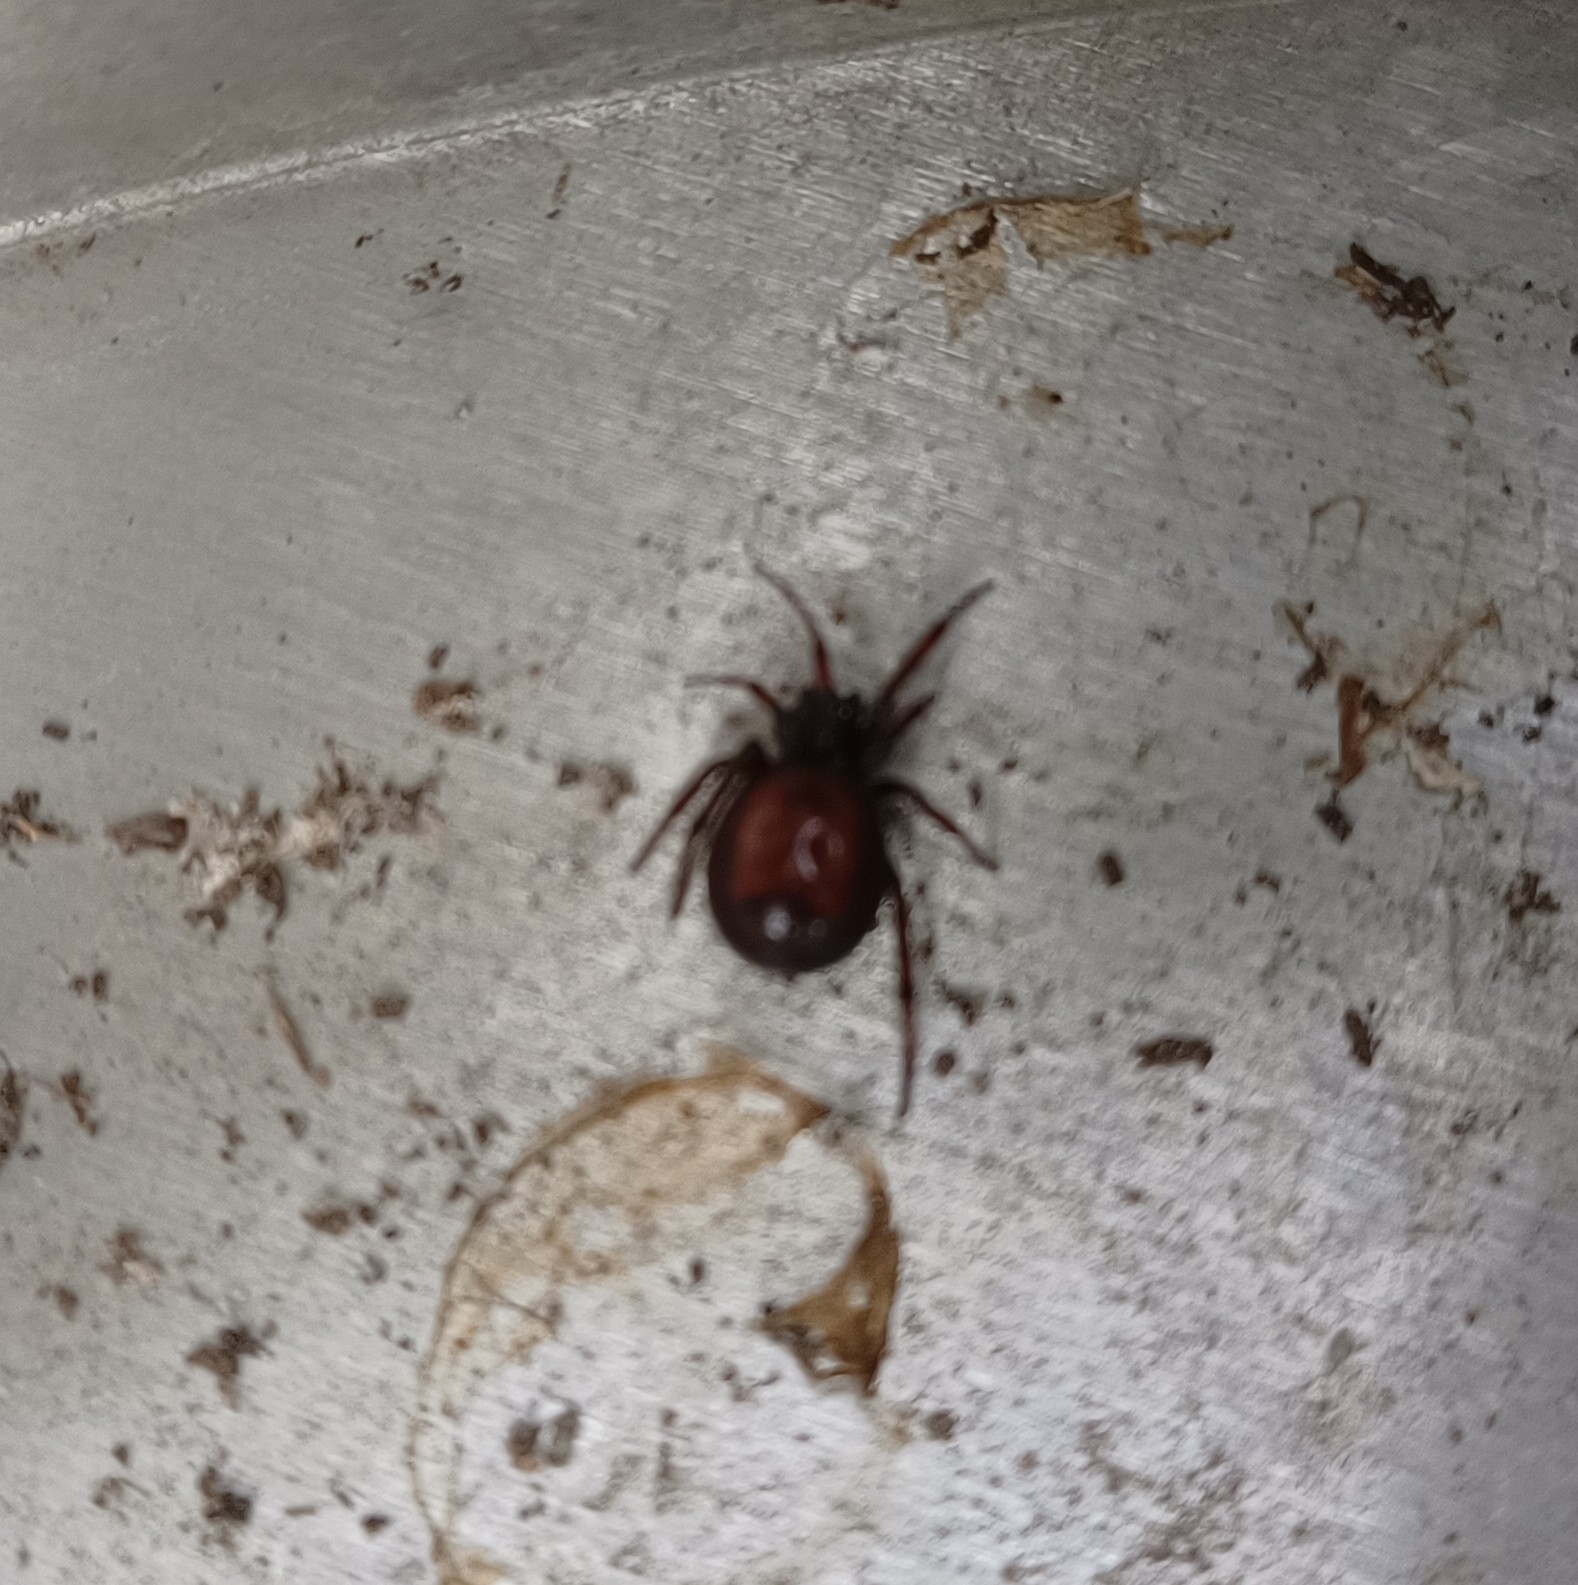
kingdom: Animalia
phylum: Arthropoda
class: Arachnida
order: Araneae
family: Theridiidae
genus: Steatoda
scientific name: Steatoda bipunctata
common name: Fedtedderkop
